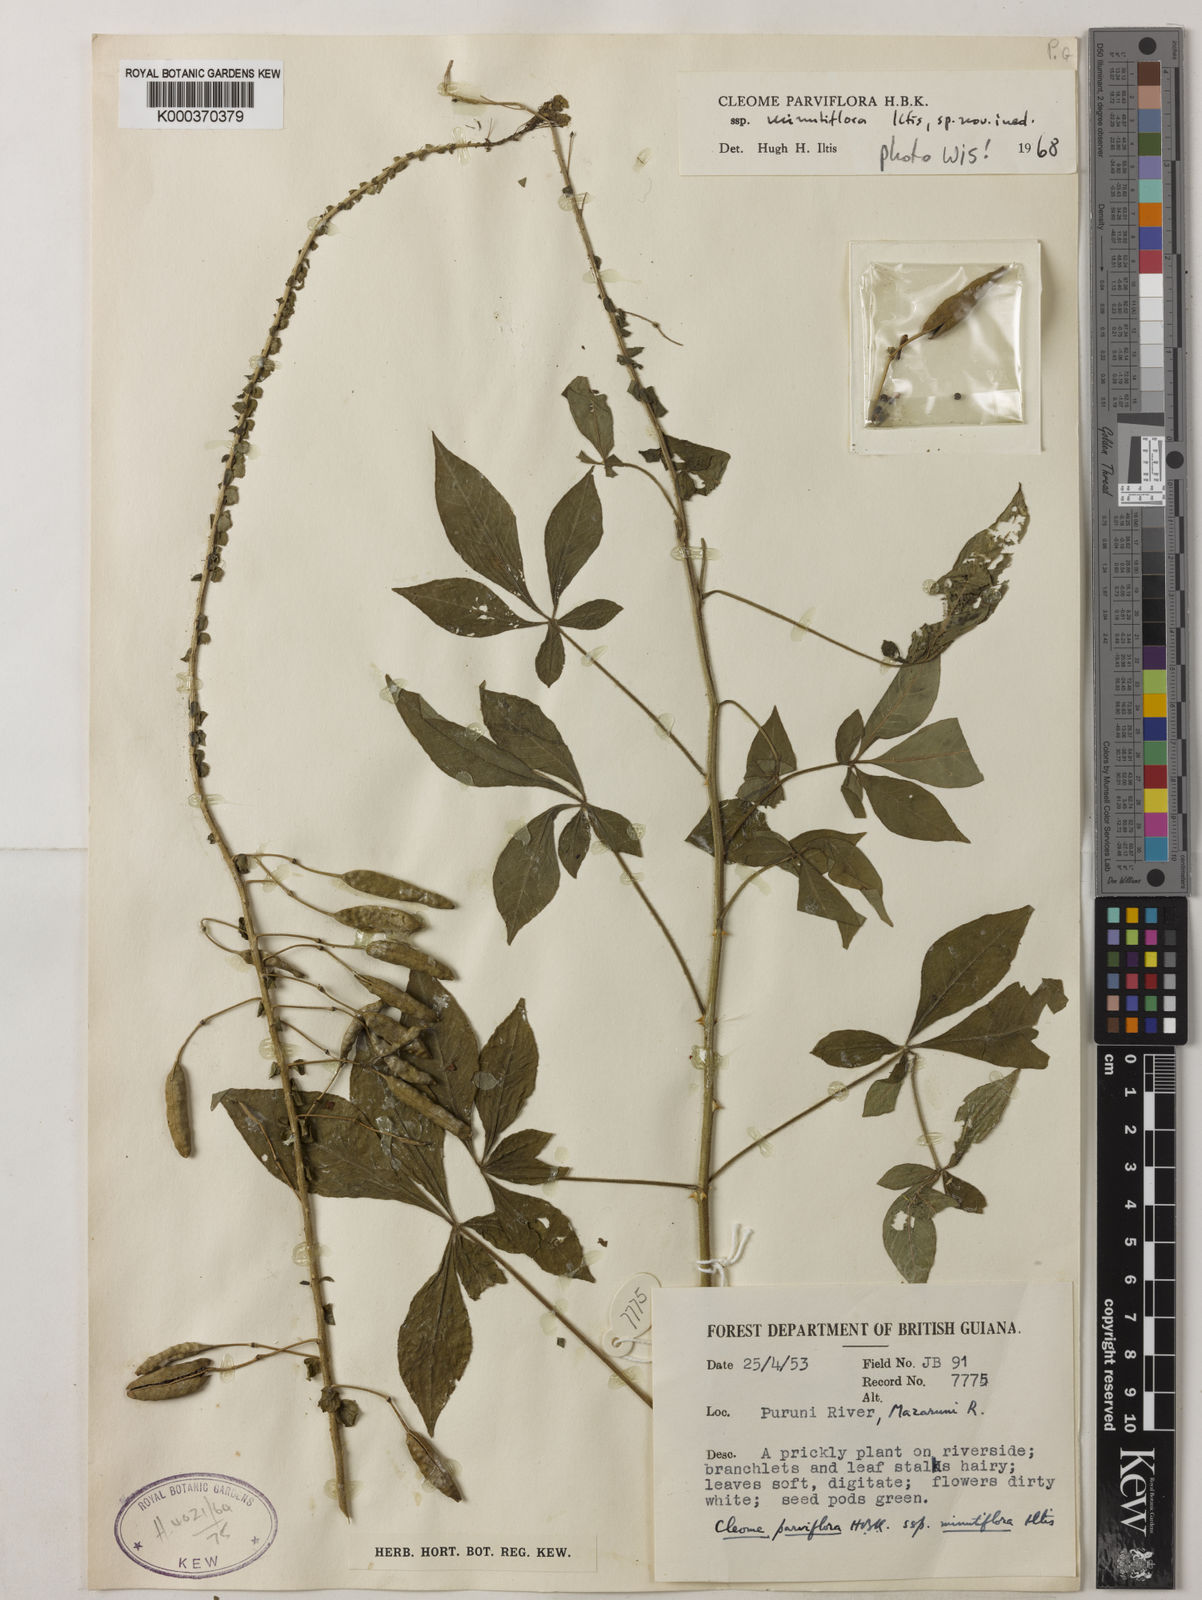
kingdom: Plantae
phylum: Tracheophyta
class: Magnoliopsida
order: Brassicales
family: Cleomaceae
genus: Tarenaya
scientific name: Tarenaya parviflora
